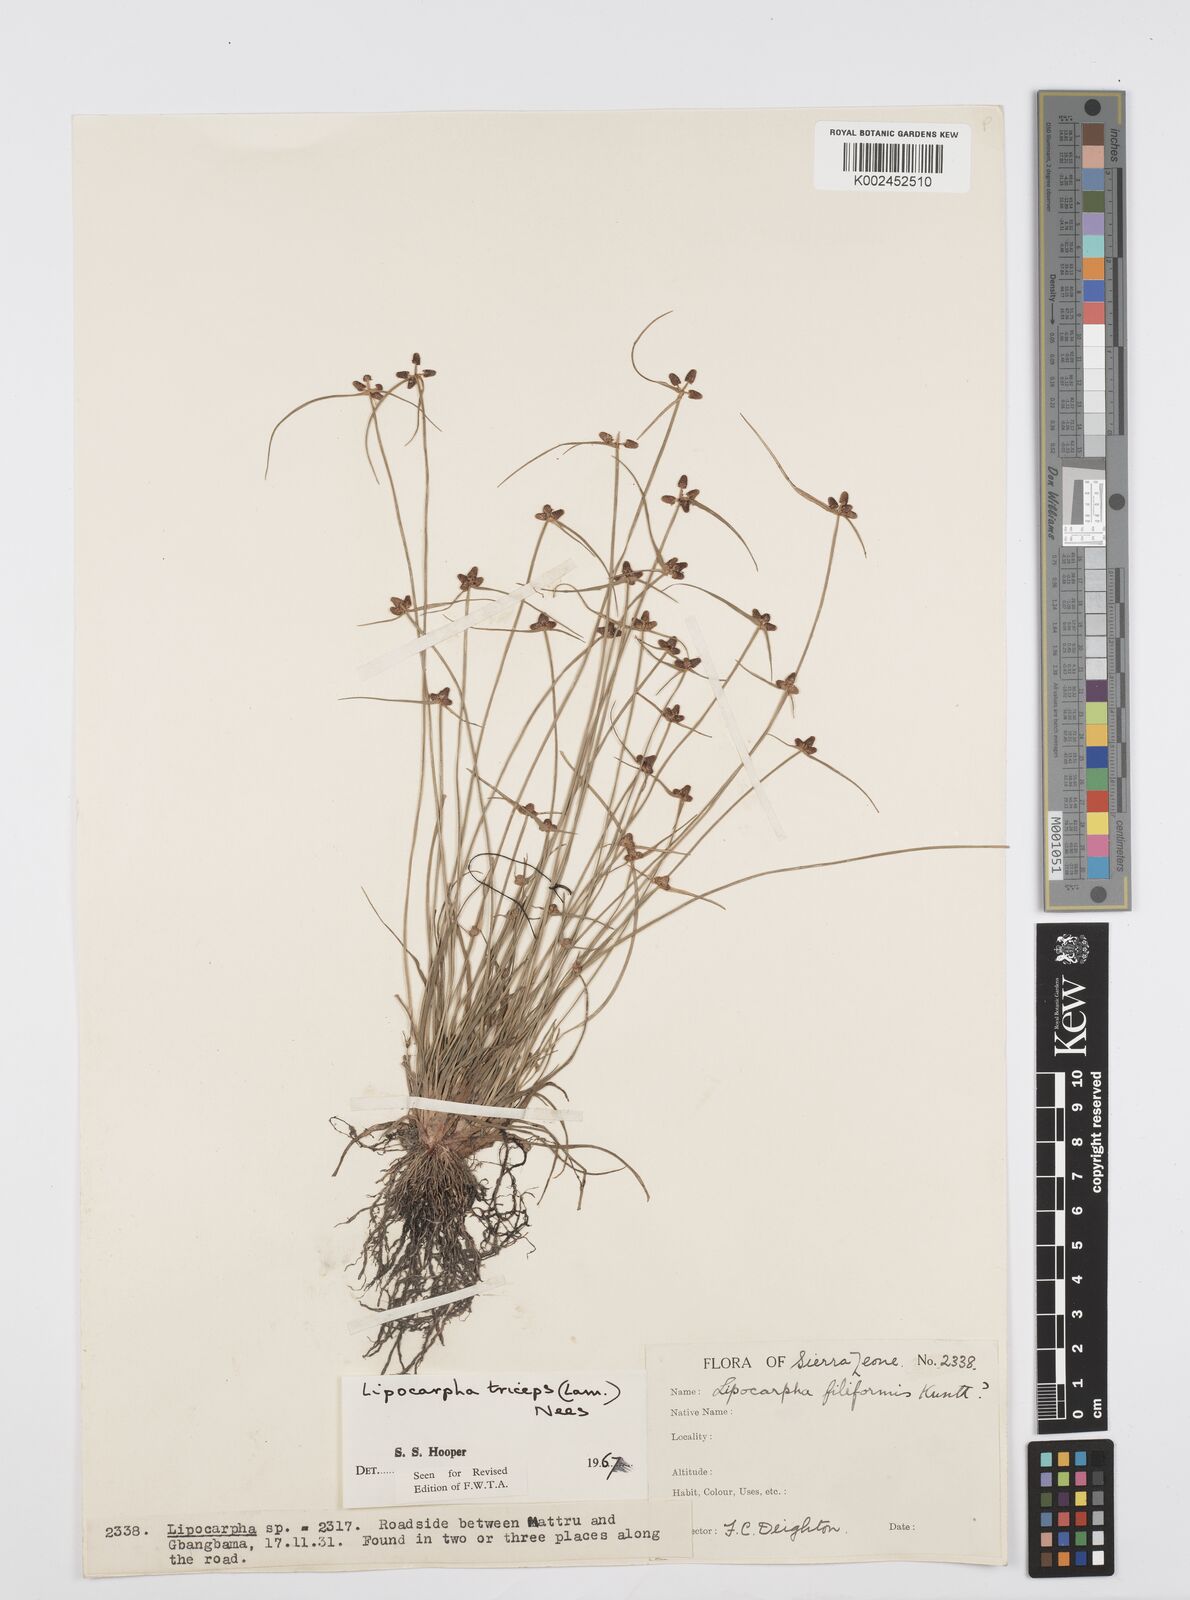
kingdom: Plantae
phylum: Tracheophyta
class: Liliopsida
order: Poales
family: Cyperaceae
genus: Cyperus
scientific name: Cyperus filiformis
